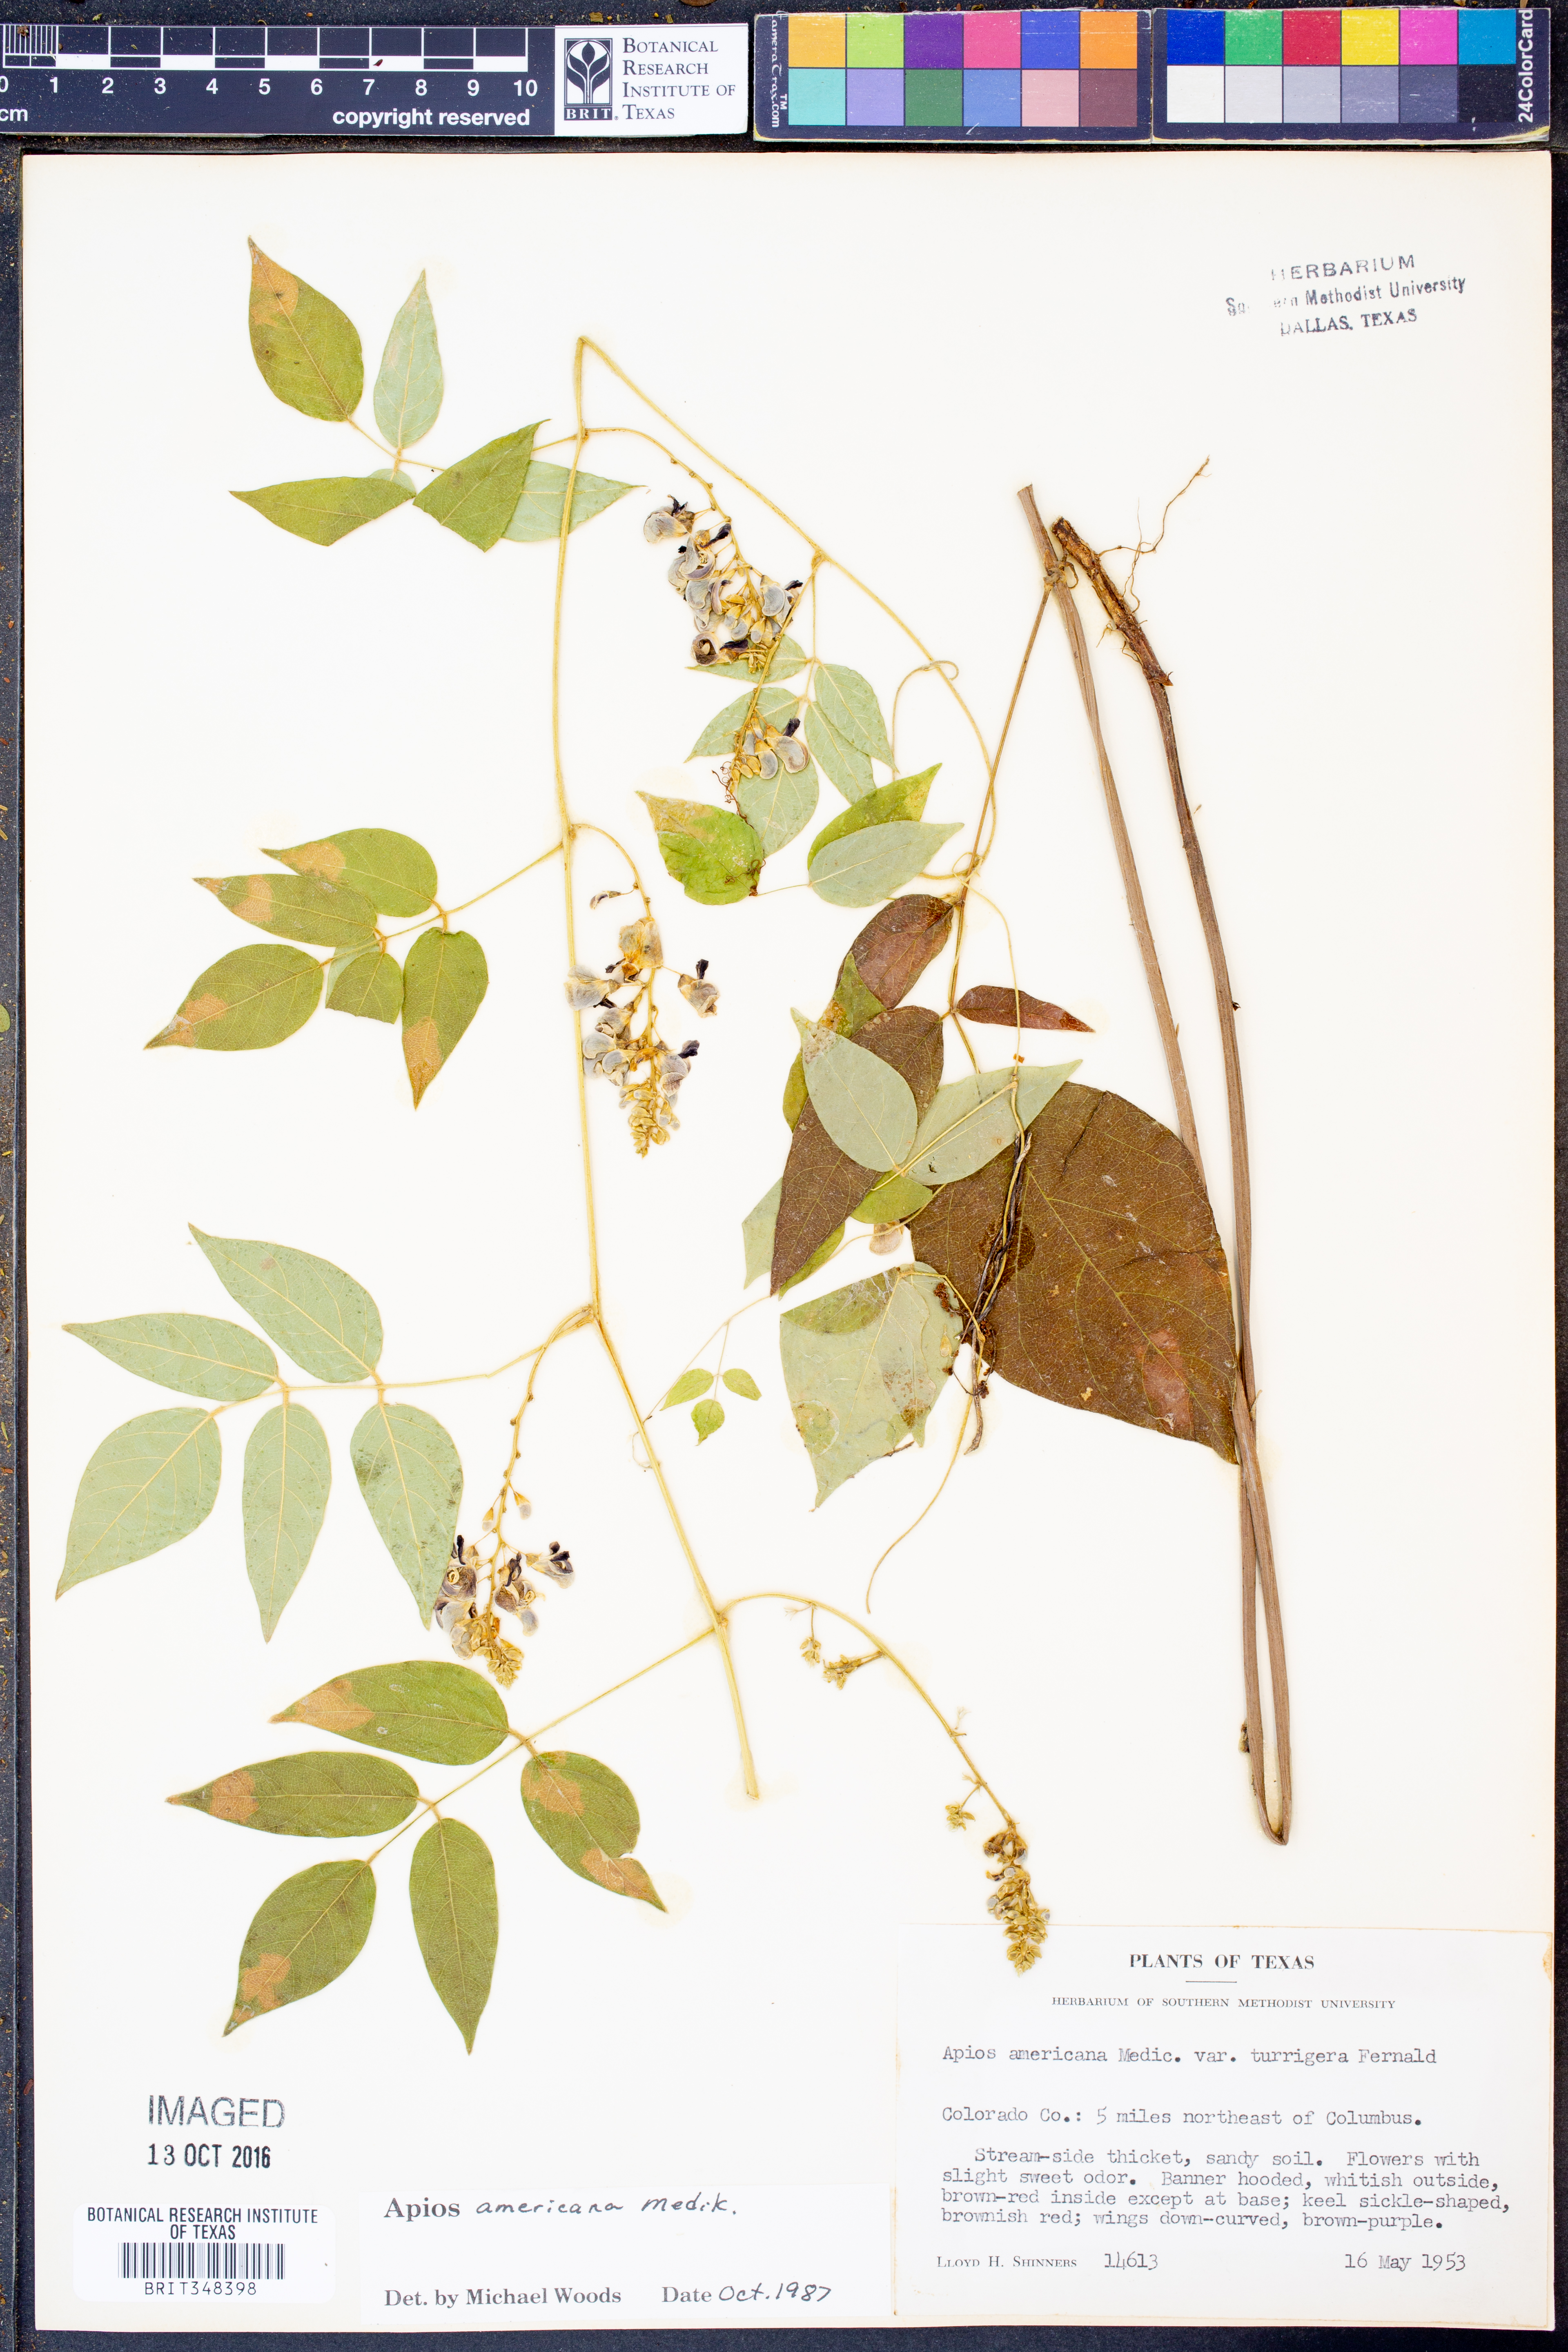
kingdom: Plantae
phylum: Tracheophyta
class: Magnoliopsida
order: Fabales
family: Fabaceae
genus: Apios
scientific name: Apios americana
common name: American potato-bean
